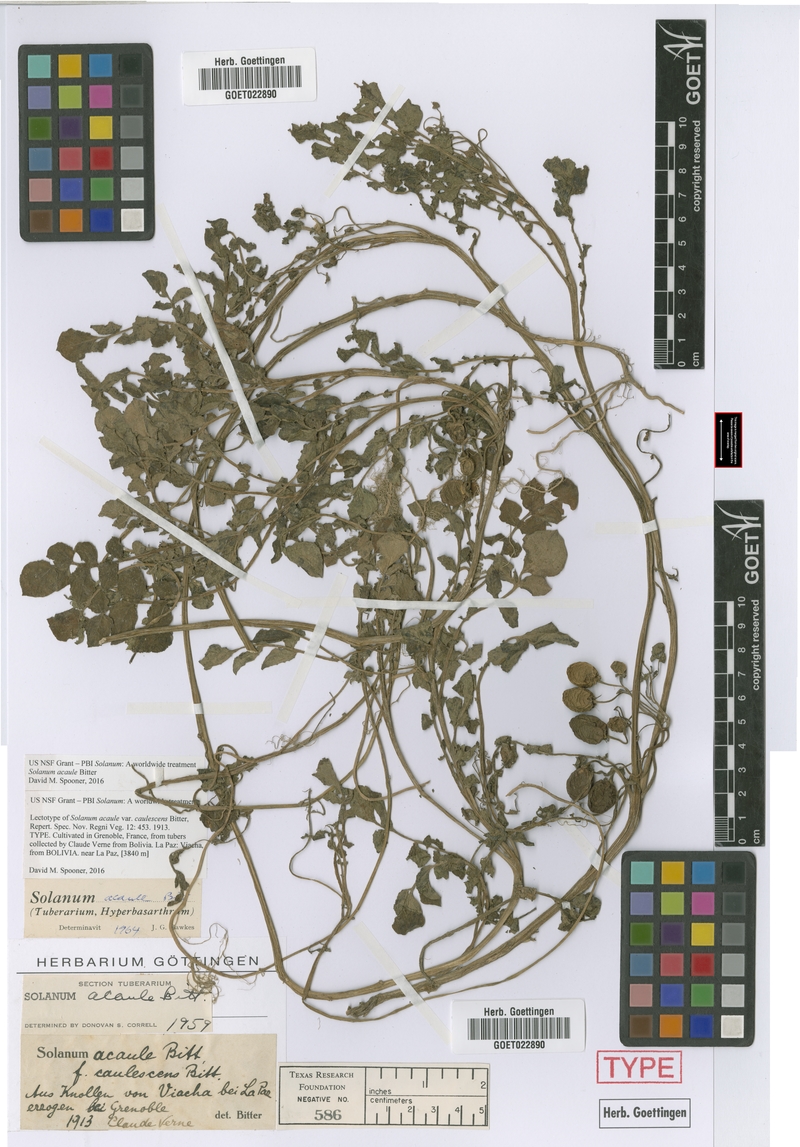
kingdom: Plantae
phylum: Tracheophyta
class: Magnoliopsida
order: Solanales
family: Solanaceae
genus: Solanum
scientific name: Solanum acaule
